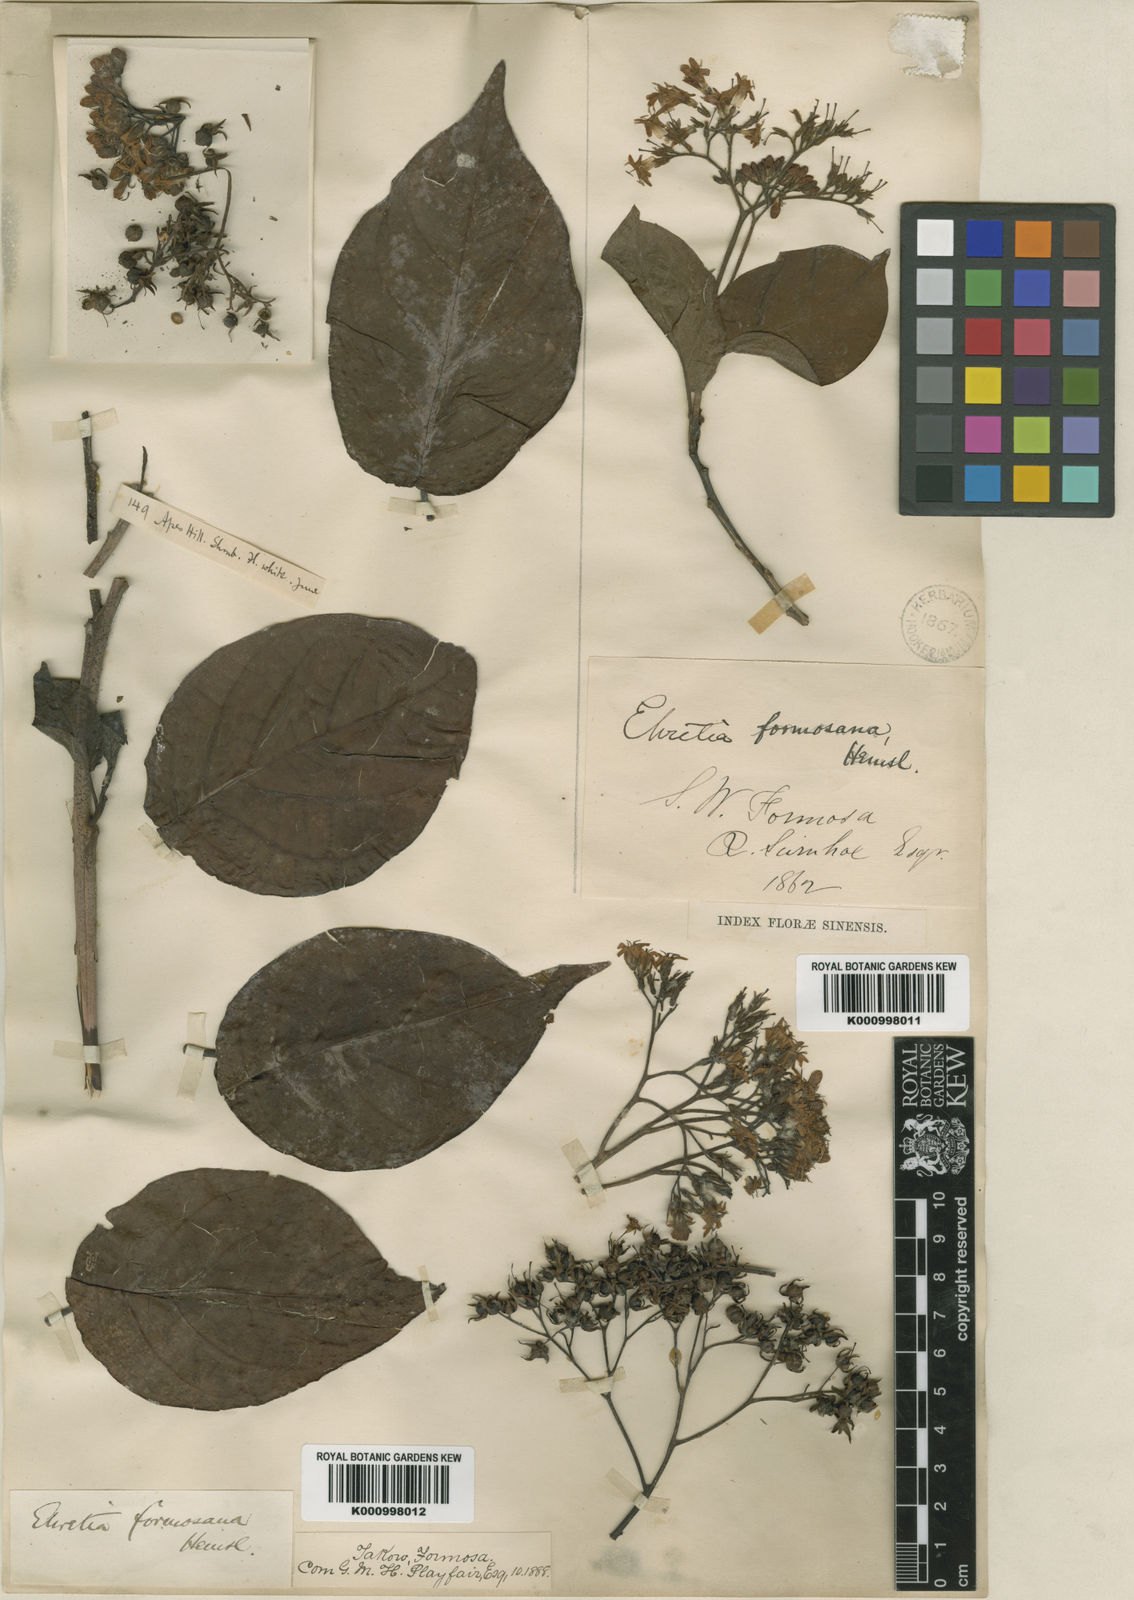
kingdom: Plantae
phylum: Tracheophyta
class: Magnoliopsida
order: Boraginales
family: Ehretiaceae
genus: Ehretia
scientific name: Ehretia resinosa
